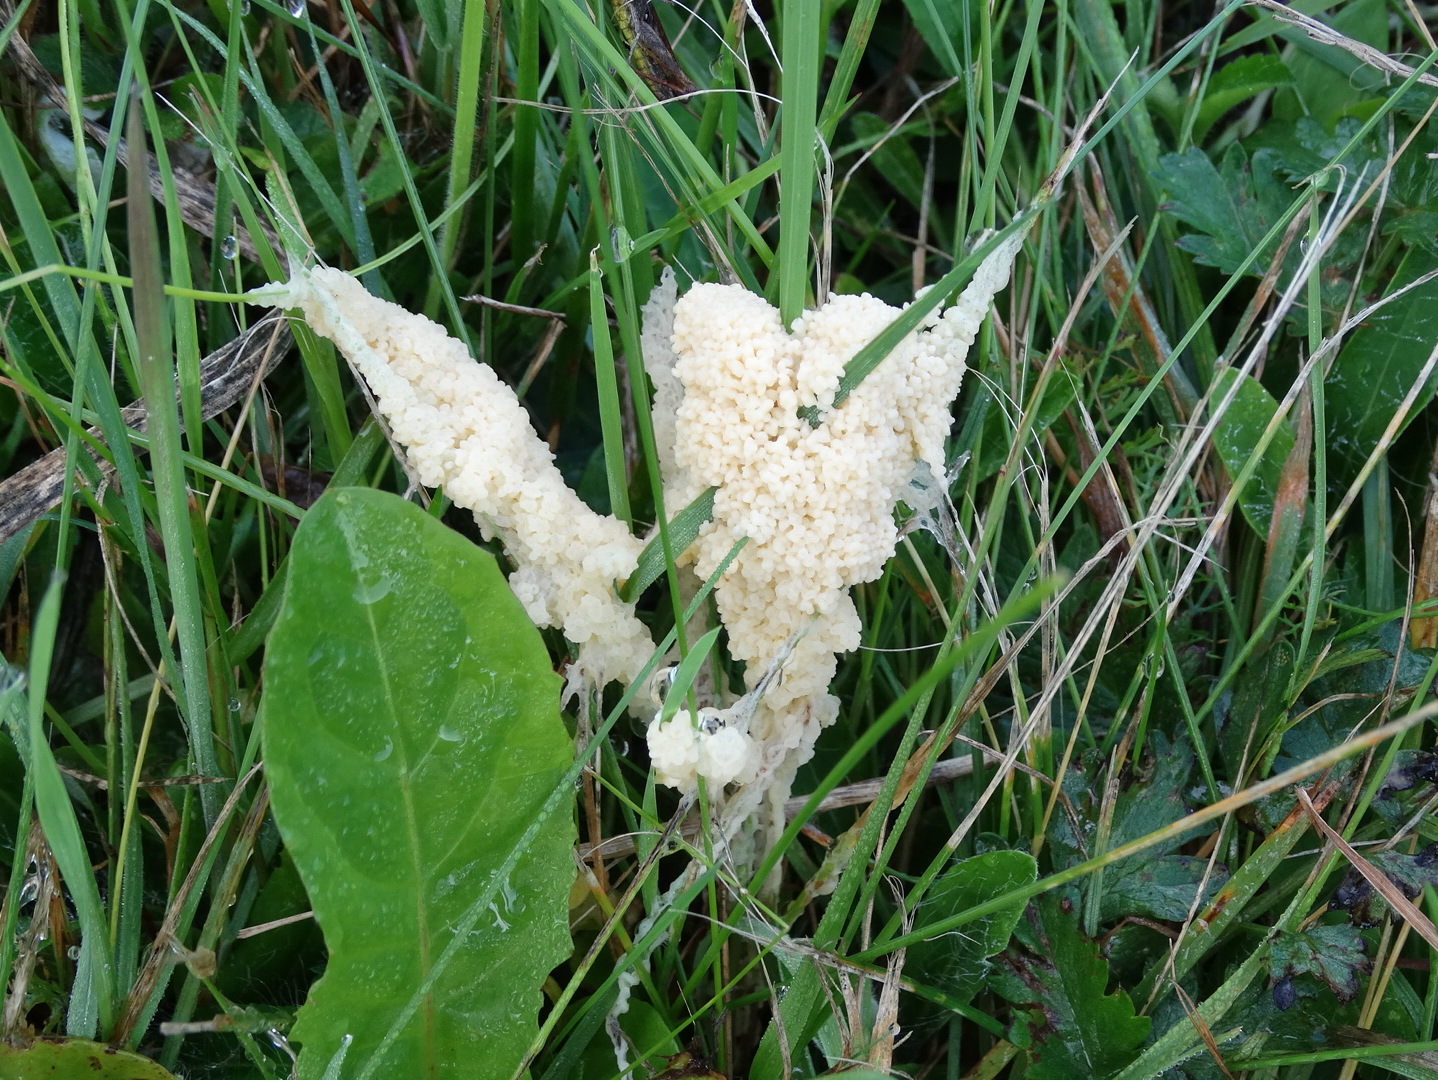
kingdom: Protozoa
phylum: Mycetozoa
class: Myxomycetes
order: Physarales
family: Physaraceae
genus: Didymium
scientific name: Didymium
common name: urteskum
